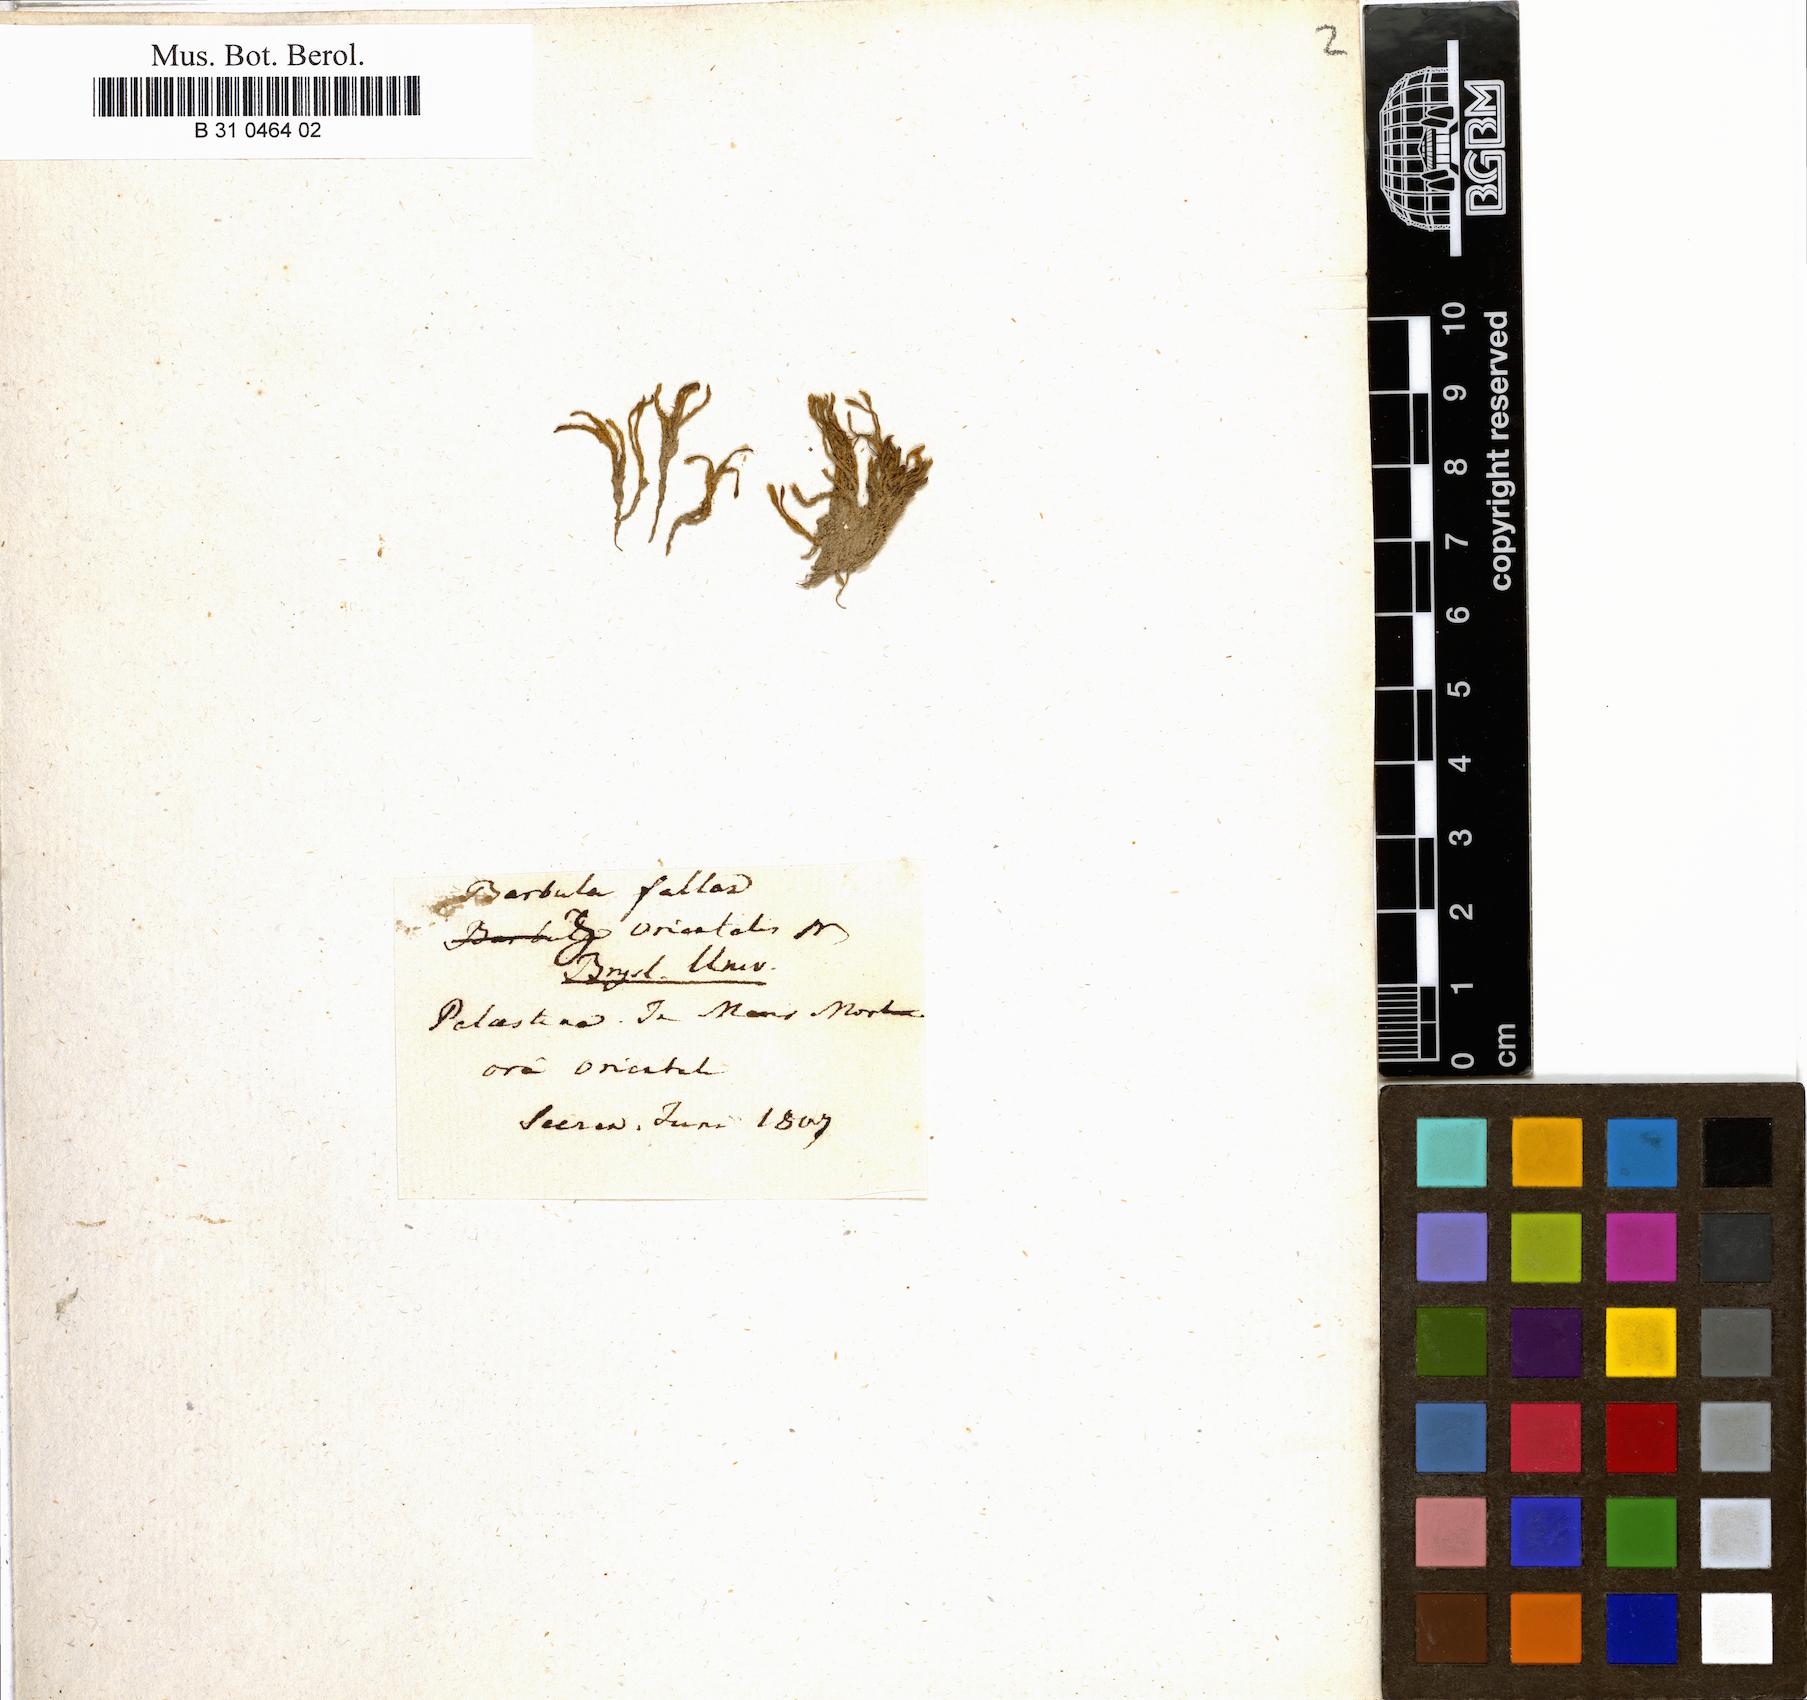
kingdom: Plantae
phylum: Bryophyta
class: Bryopsida
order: Pottiales
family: Pottiaceae
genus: Geheebia
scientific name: Geheebia fallax
